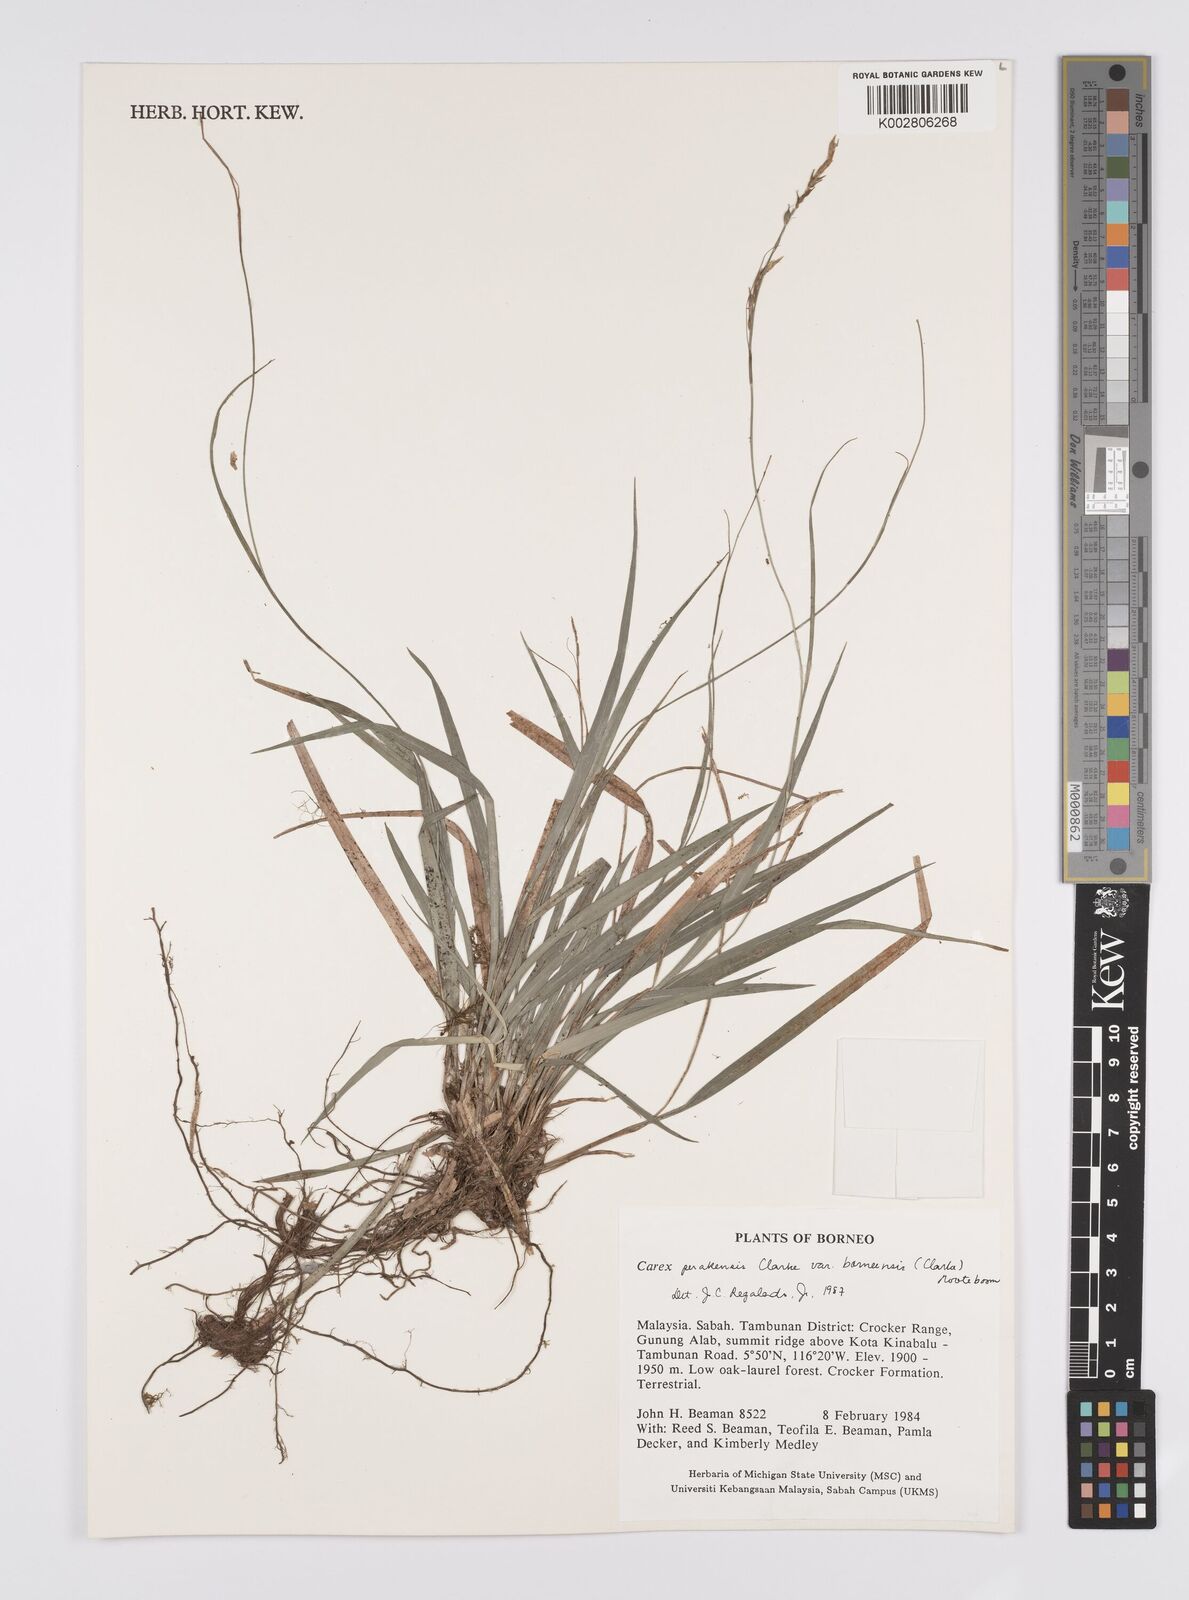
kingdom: Plantae
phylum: Tracheophyta
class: Liliopsida
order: Poales
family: Cyperaceae
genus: Carex
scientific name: Carex perakensis
